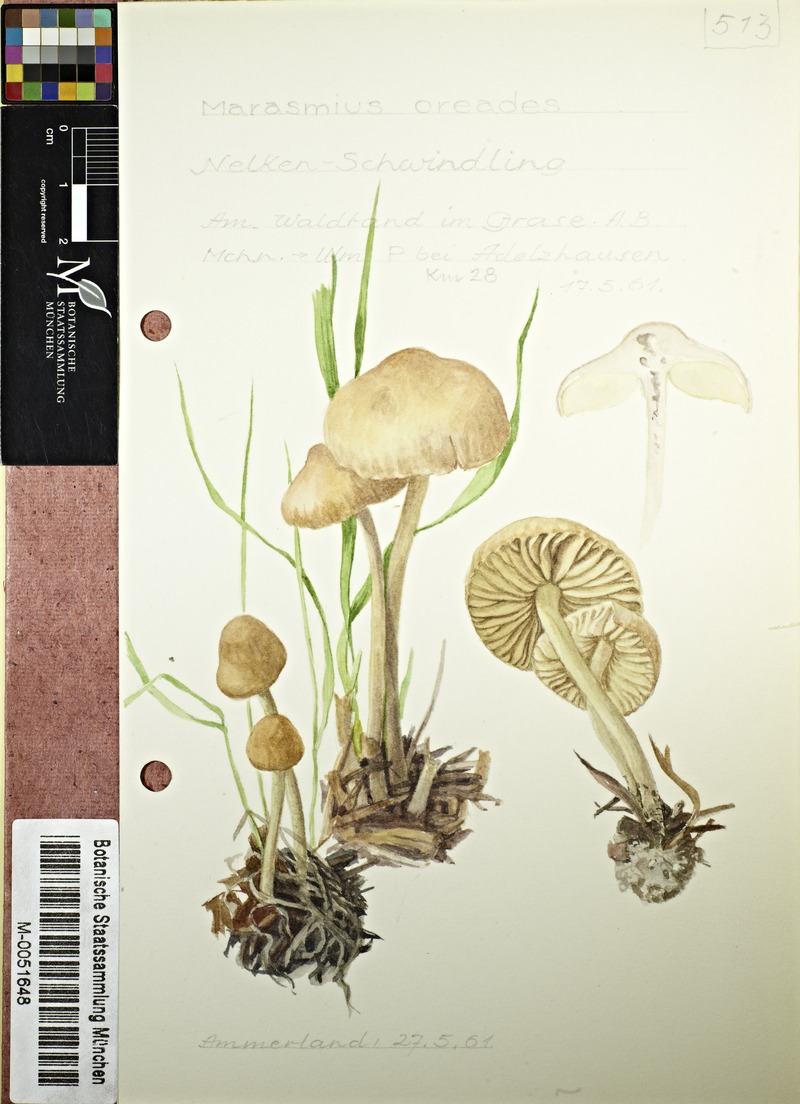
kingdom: Fungi
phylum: Basidiomycota
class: Agaricomycetes
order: Agaricales
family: Marasmiaceae
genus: Marasmius
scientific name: Marasmius oreades
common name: Fairy ring champignon
